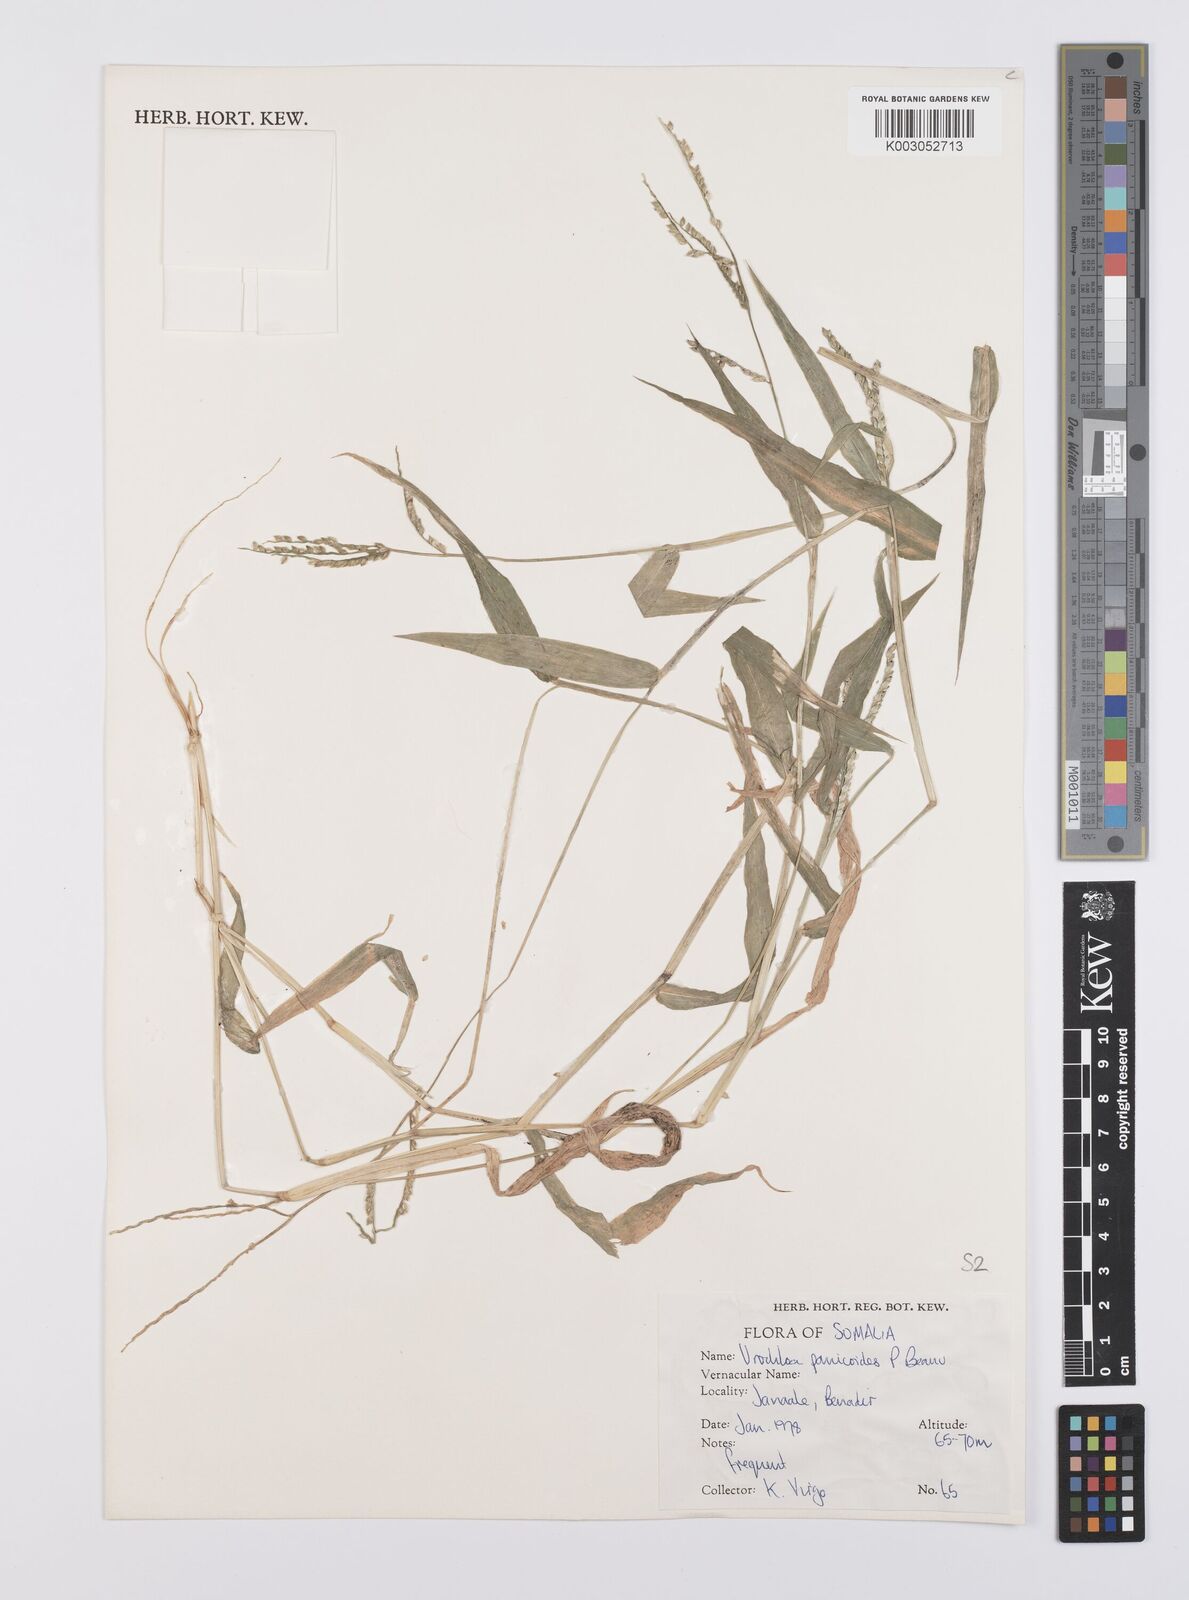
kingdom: Plantae
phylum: Tracheophyta
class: Liliopsida
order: Poales
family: Poaceae
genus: Urochloa
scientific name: Urochloa panicoides
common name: Sharp-flowered signal-grass
